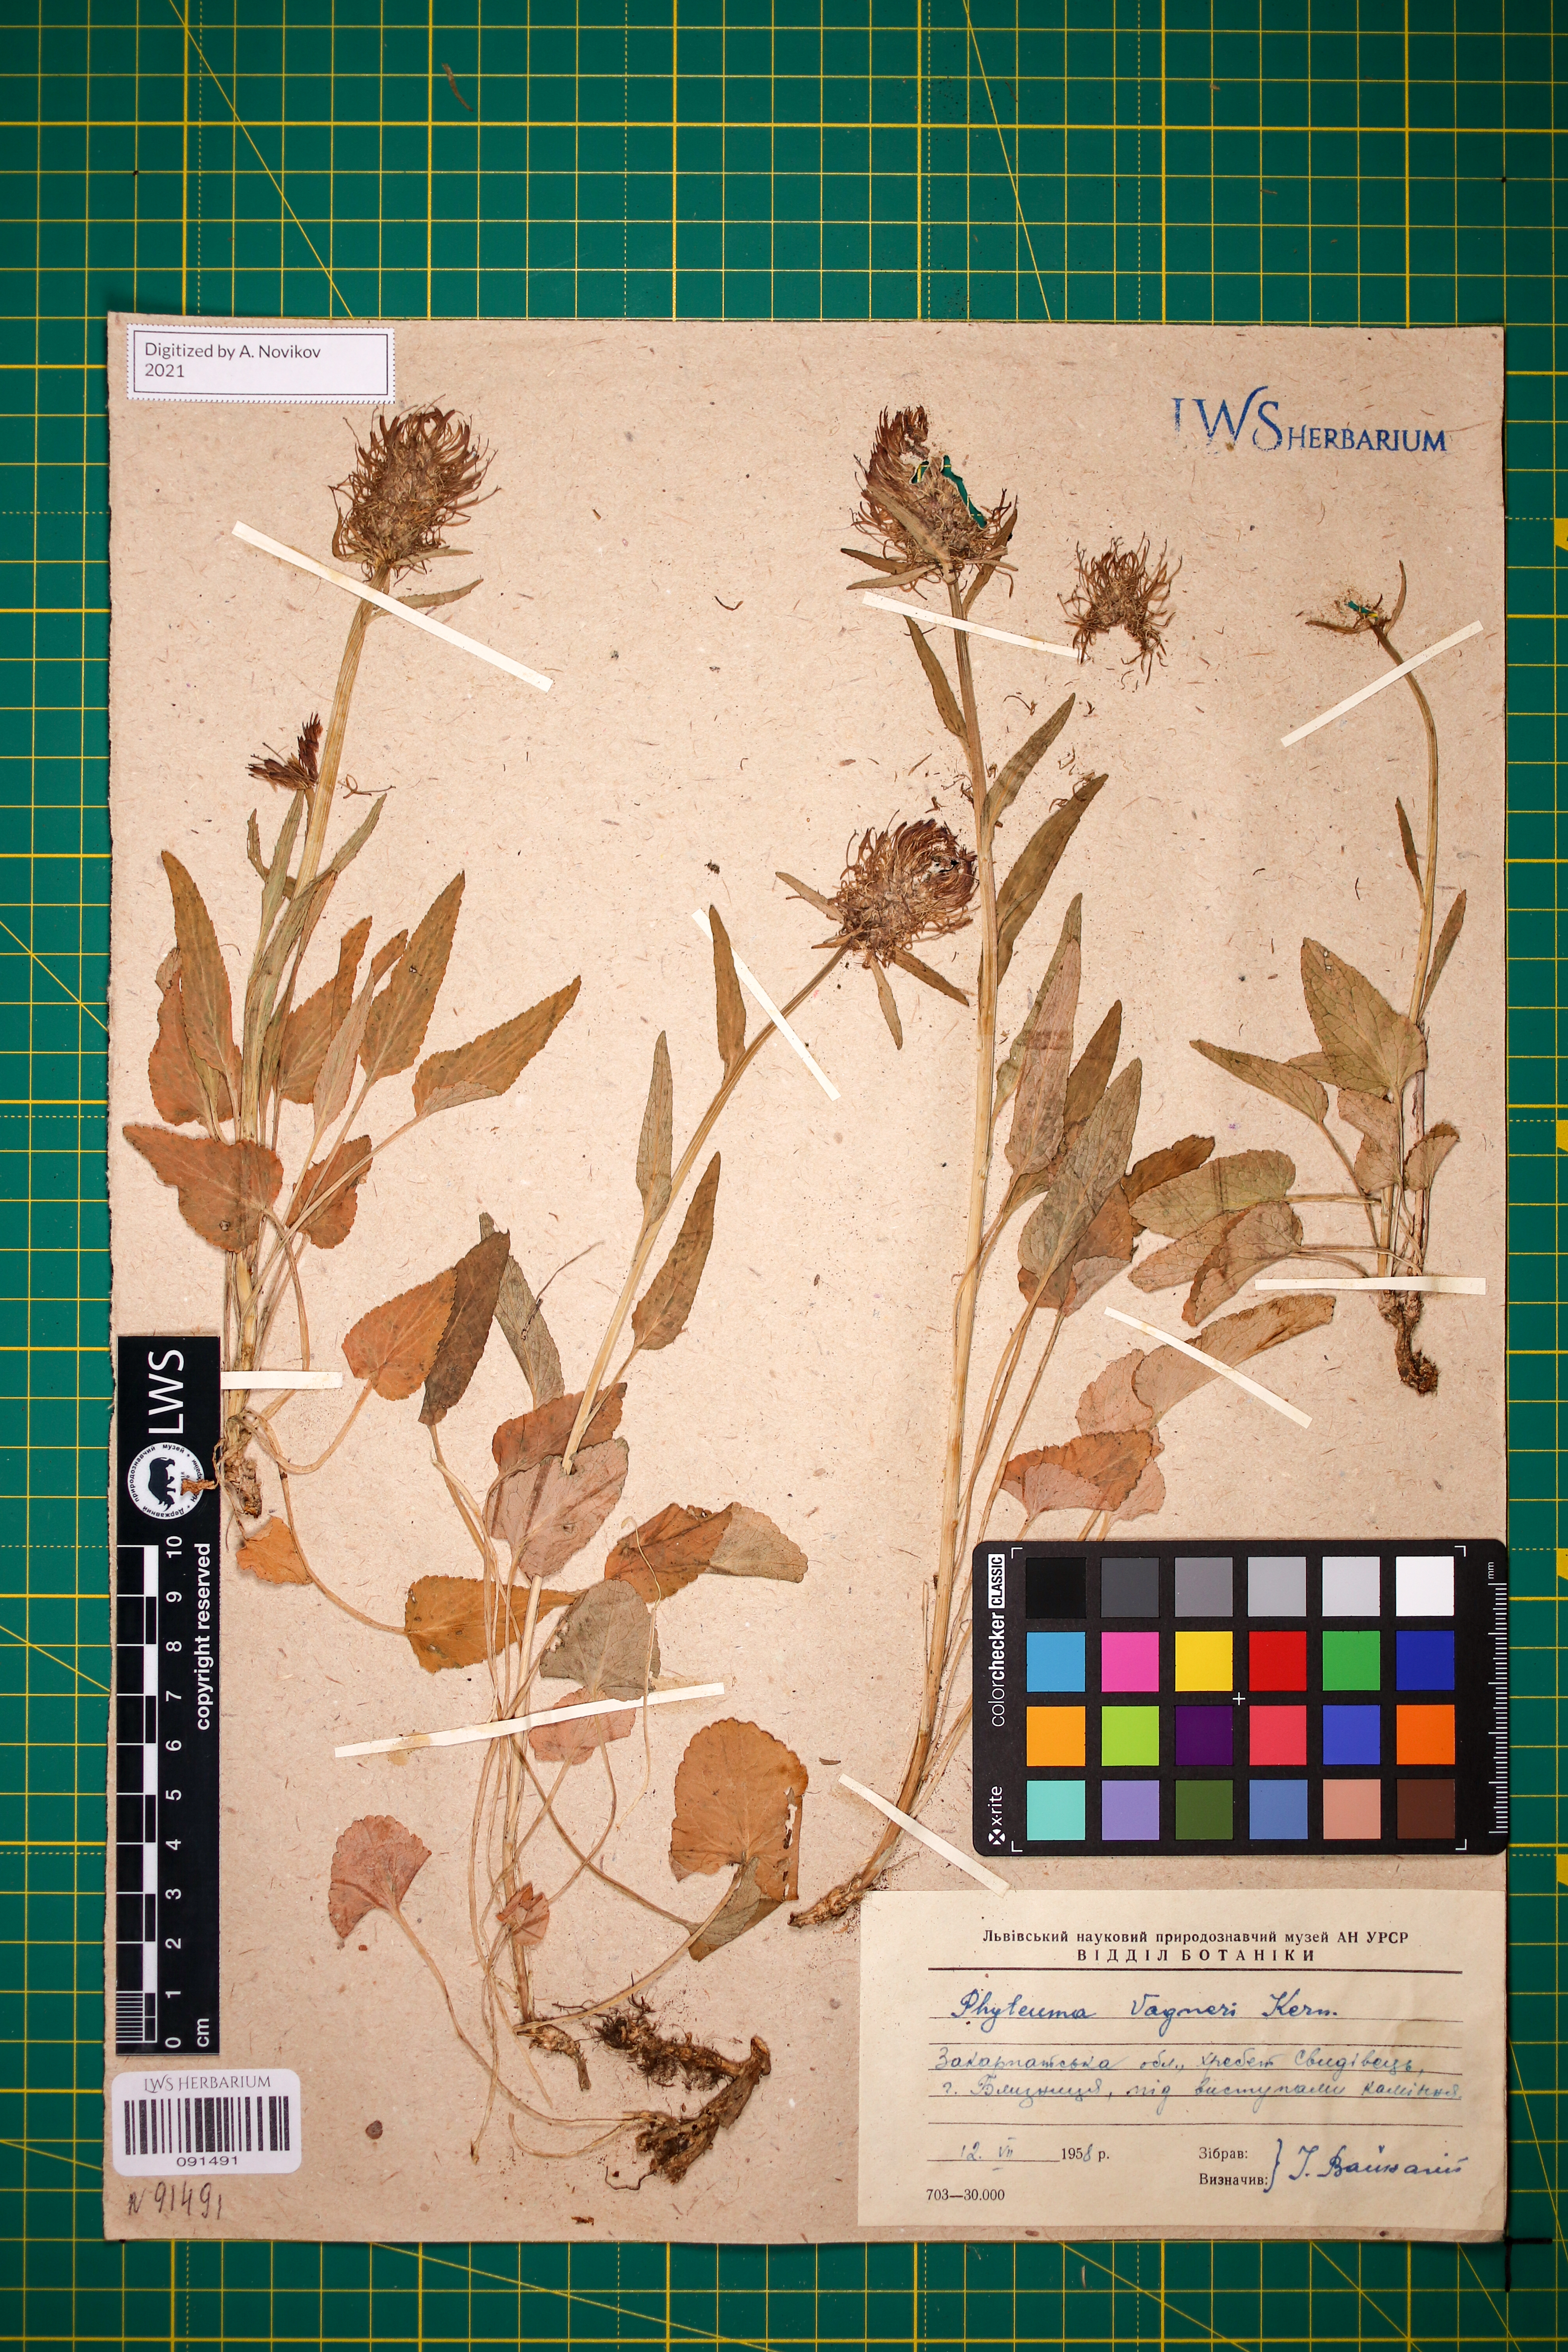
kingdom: Plantae
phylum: Tracheophyta
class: Magnoliopsida
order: Asterales
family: Campanulaceae
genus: Phyteuma
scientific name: Phyteuma vagneri
